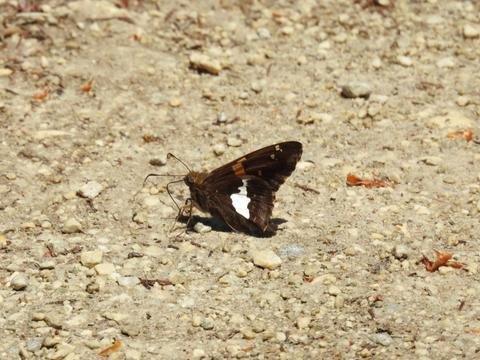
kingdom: Animalia
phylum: Arthropoda
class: Insecta
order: Lepidoptera
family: Hesperiidae
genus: Epargyreus
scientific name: Epargyreus clarus
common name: Silver-spotted Skipper
